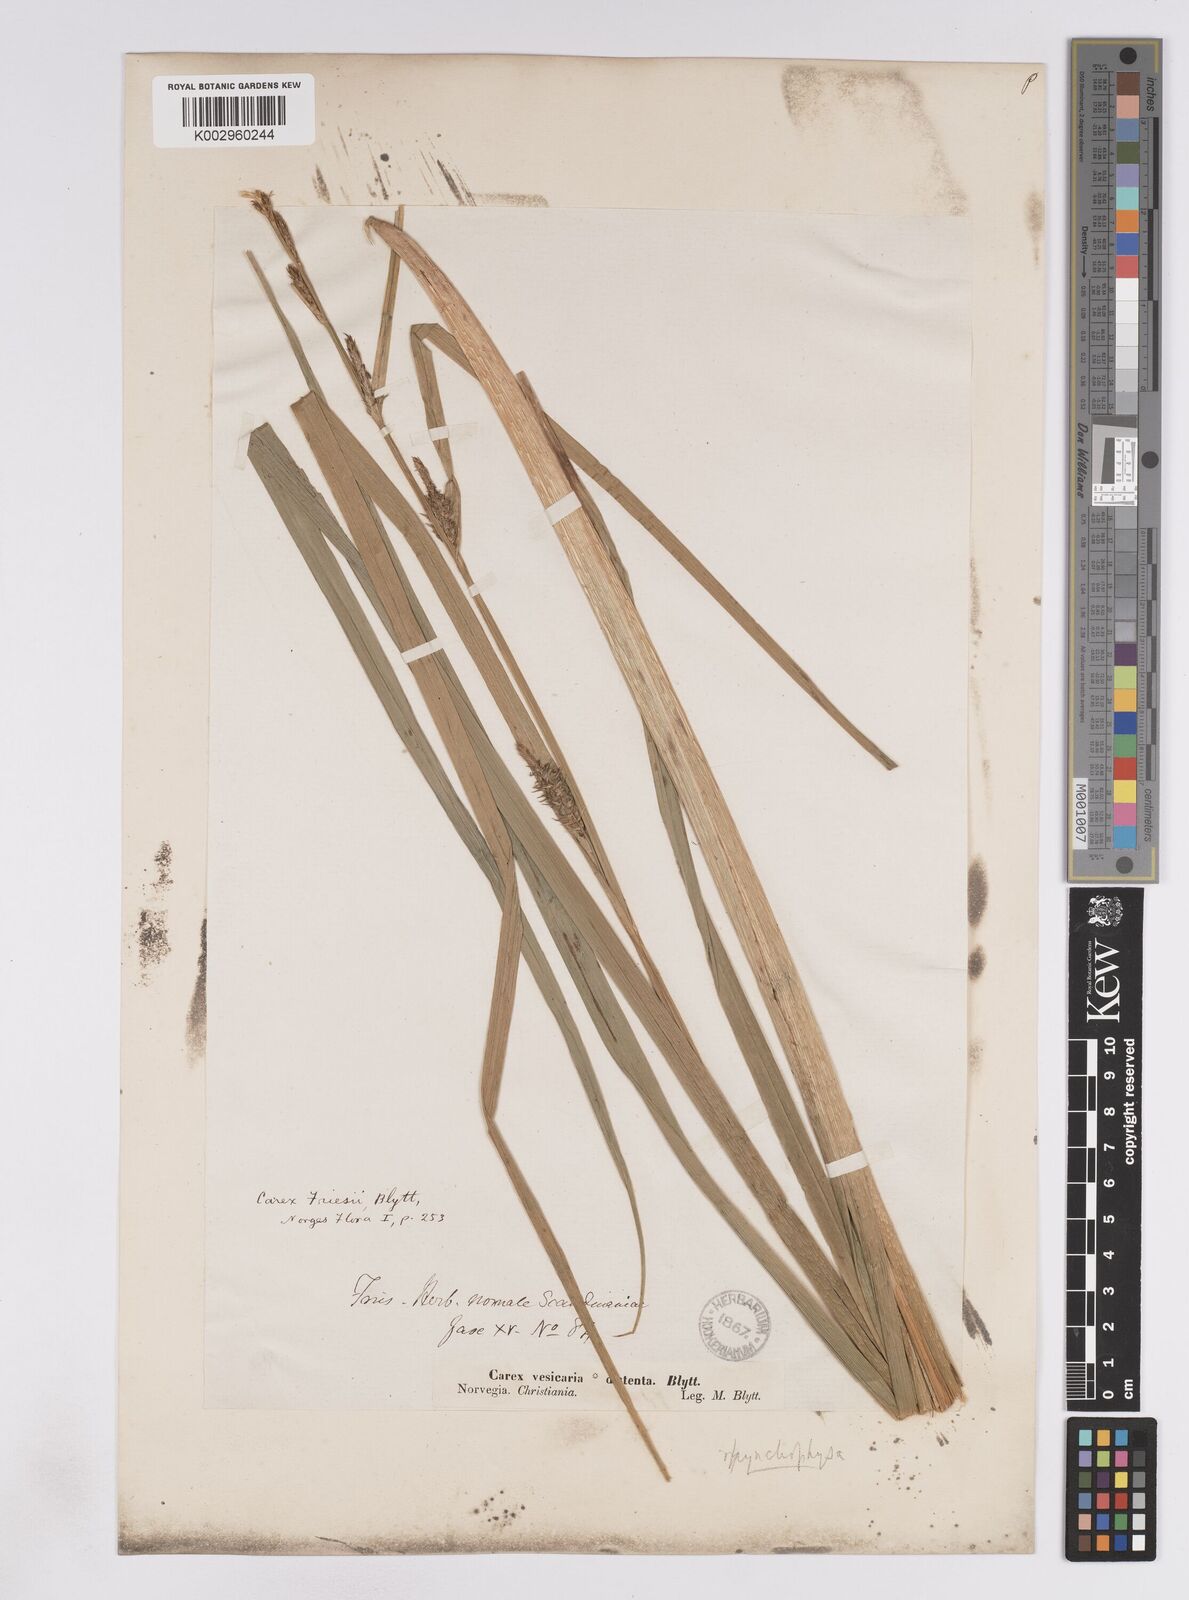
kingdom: Plantae
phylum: Tracheophyta
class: Liliopsida
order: Poales
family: Cyperaceae
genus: Carex
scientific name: Carex vesicaria
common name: Bladder-sedge
